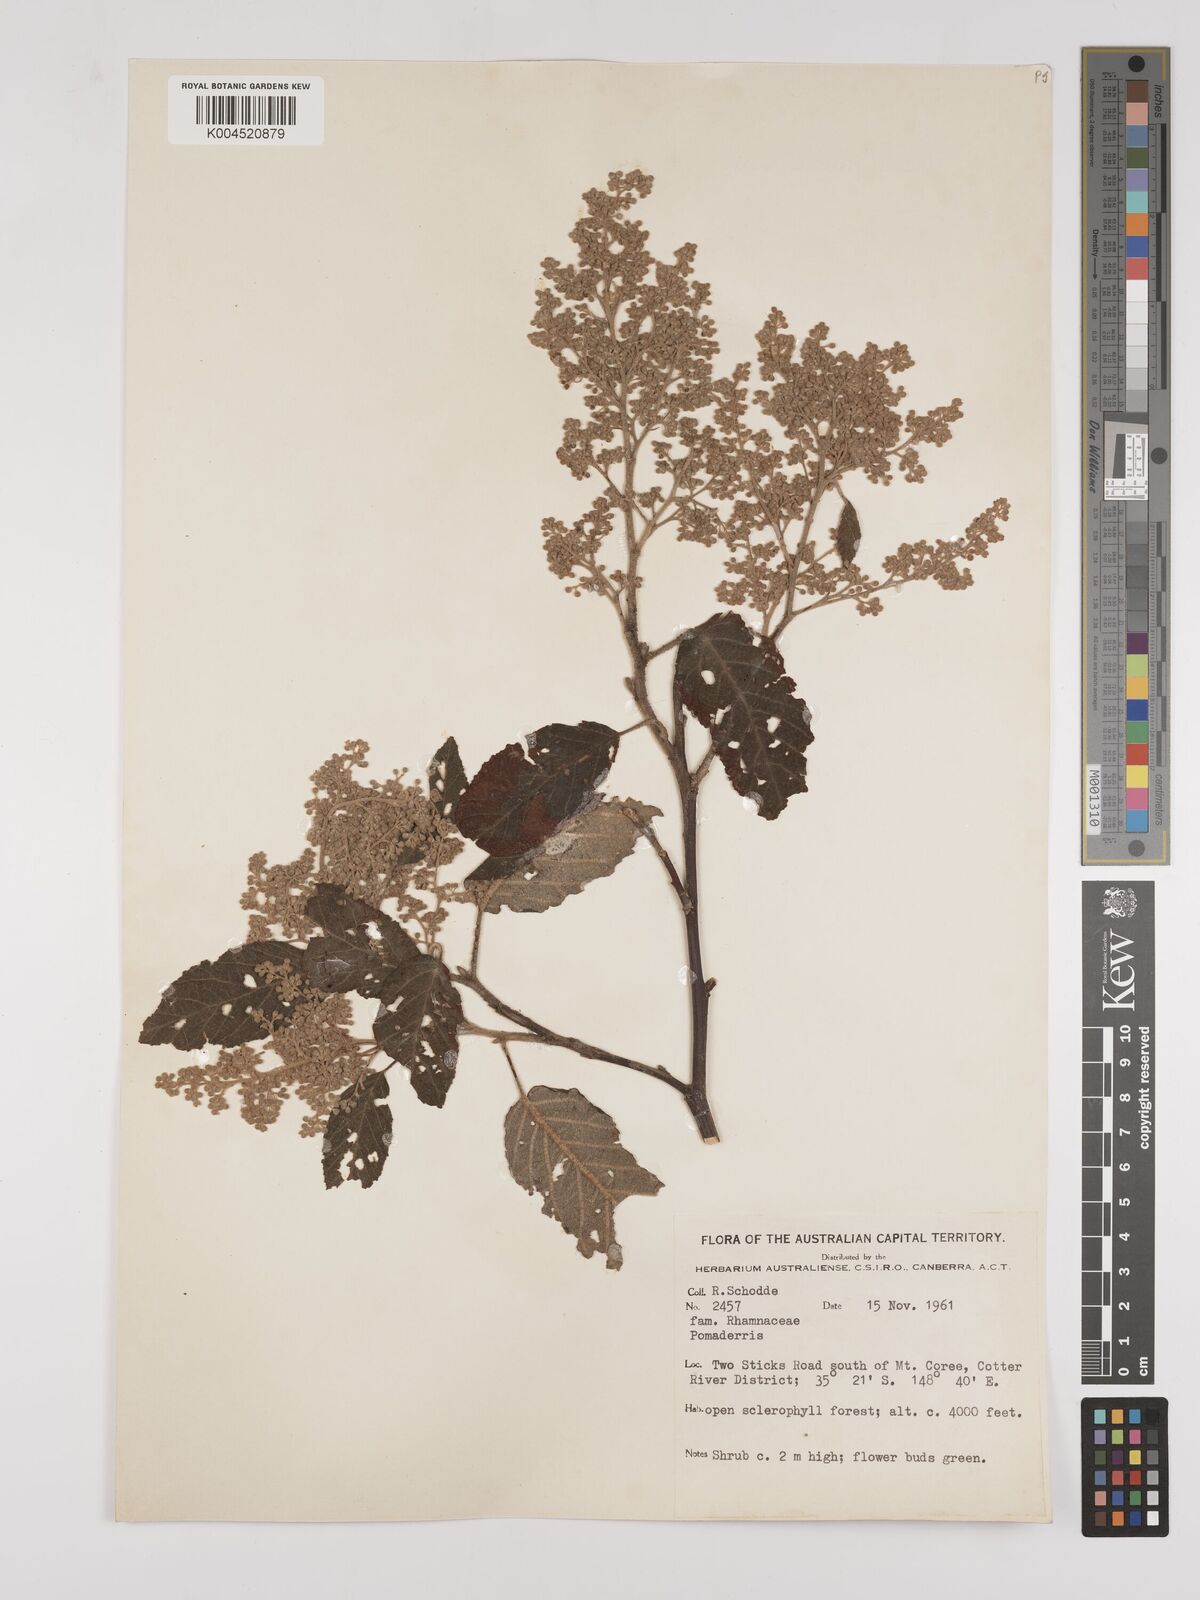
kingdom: Plantae
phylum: Tracheophyta
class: Magnoliopsida
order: Rosales
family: Rhamnaceae
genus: Pomaderris
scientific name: Pomaderris
